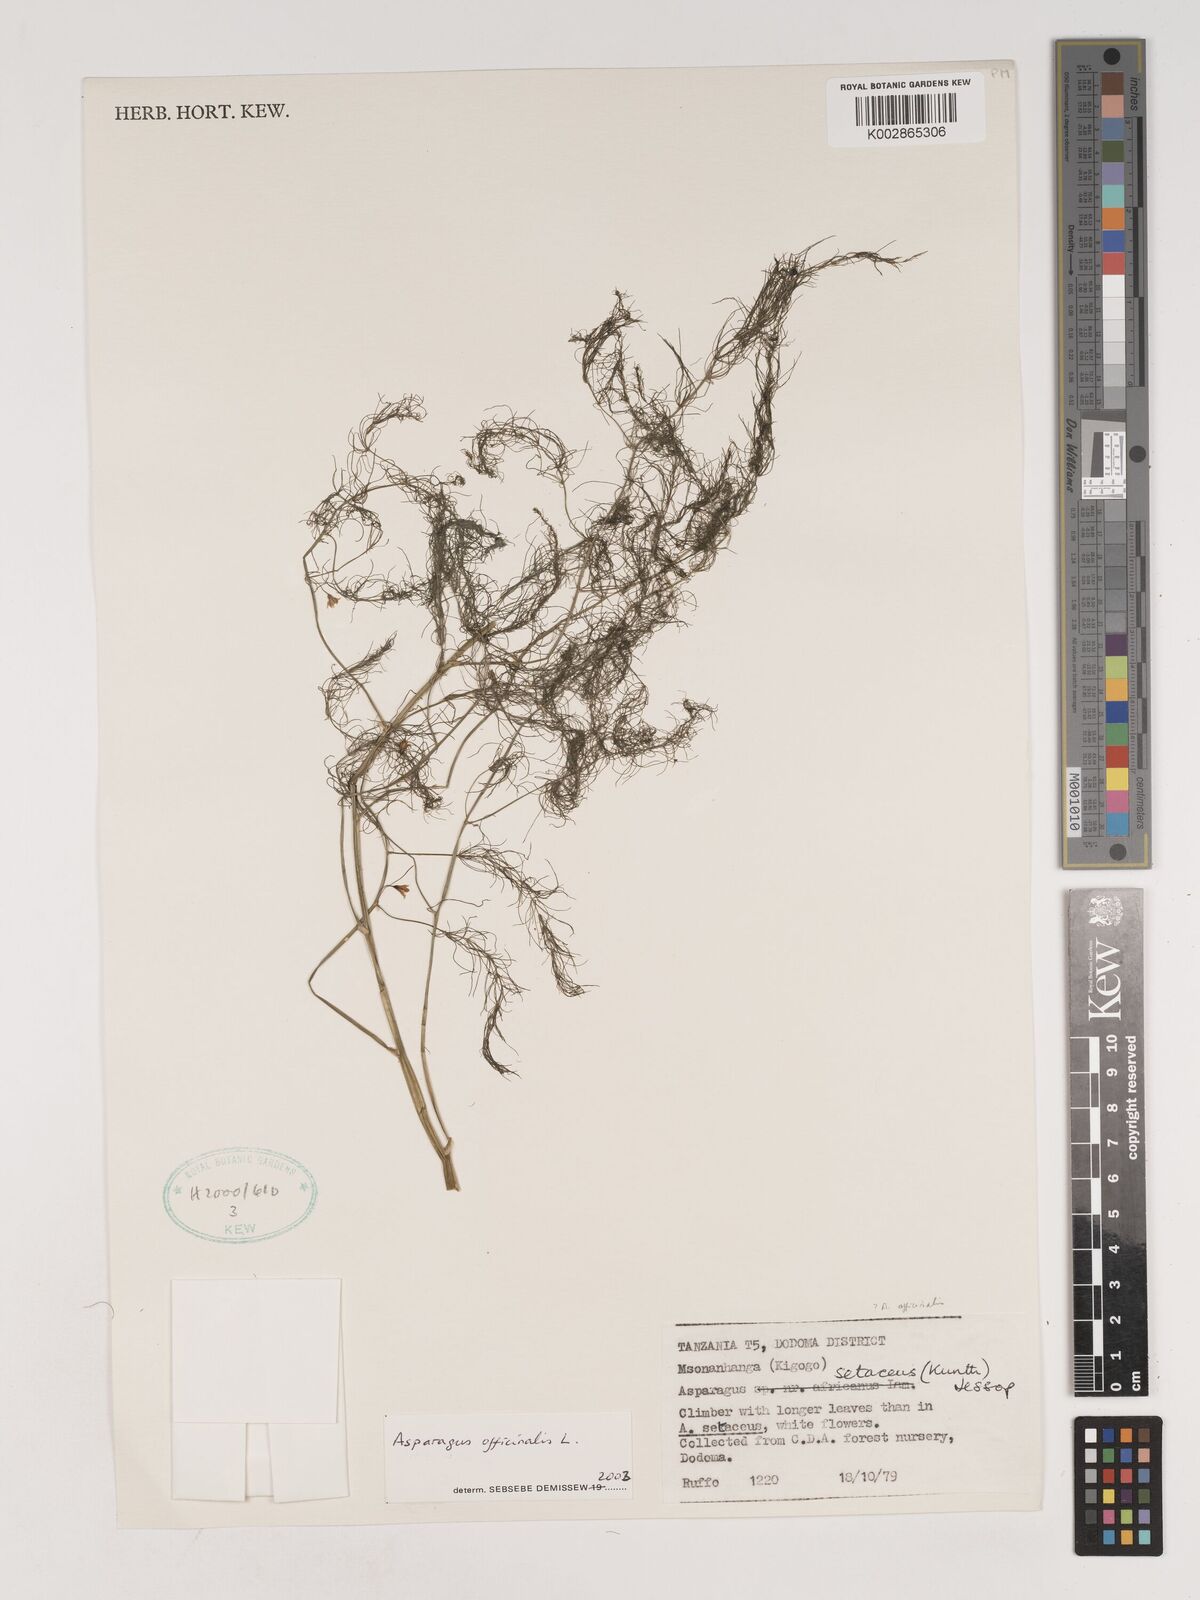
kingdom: Plantae
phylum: Tracheophyta
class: Liliopsida
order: Asparagales
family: Asparagaceae
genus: Asparagus
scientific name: Asparagus officinalis
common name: Garden asparagus
